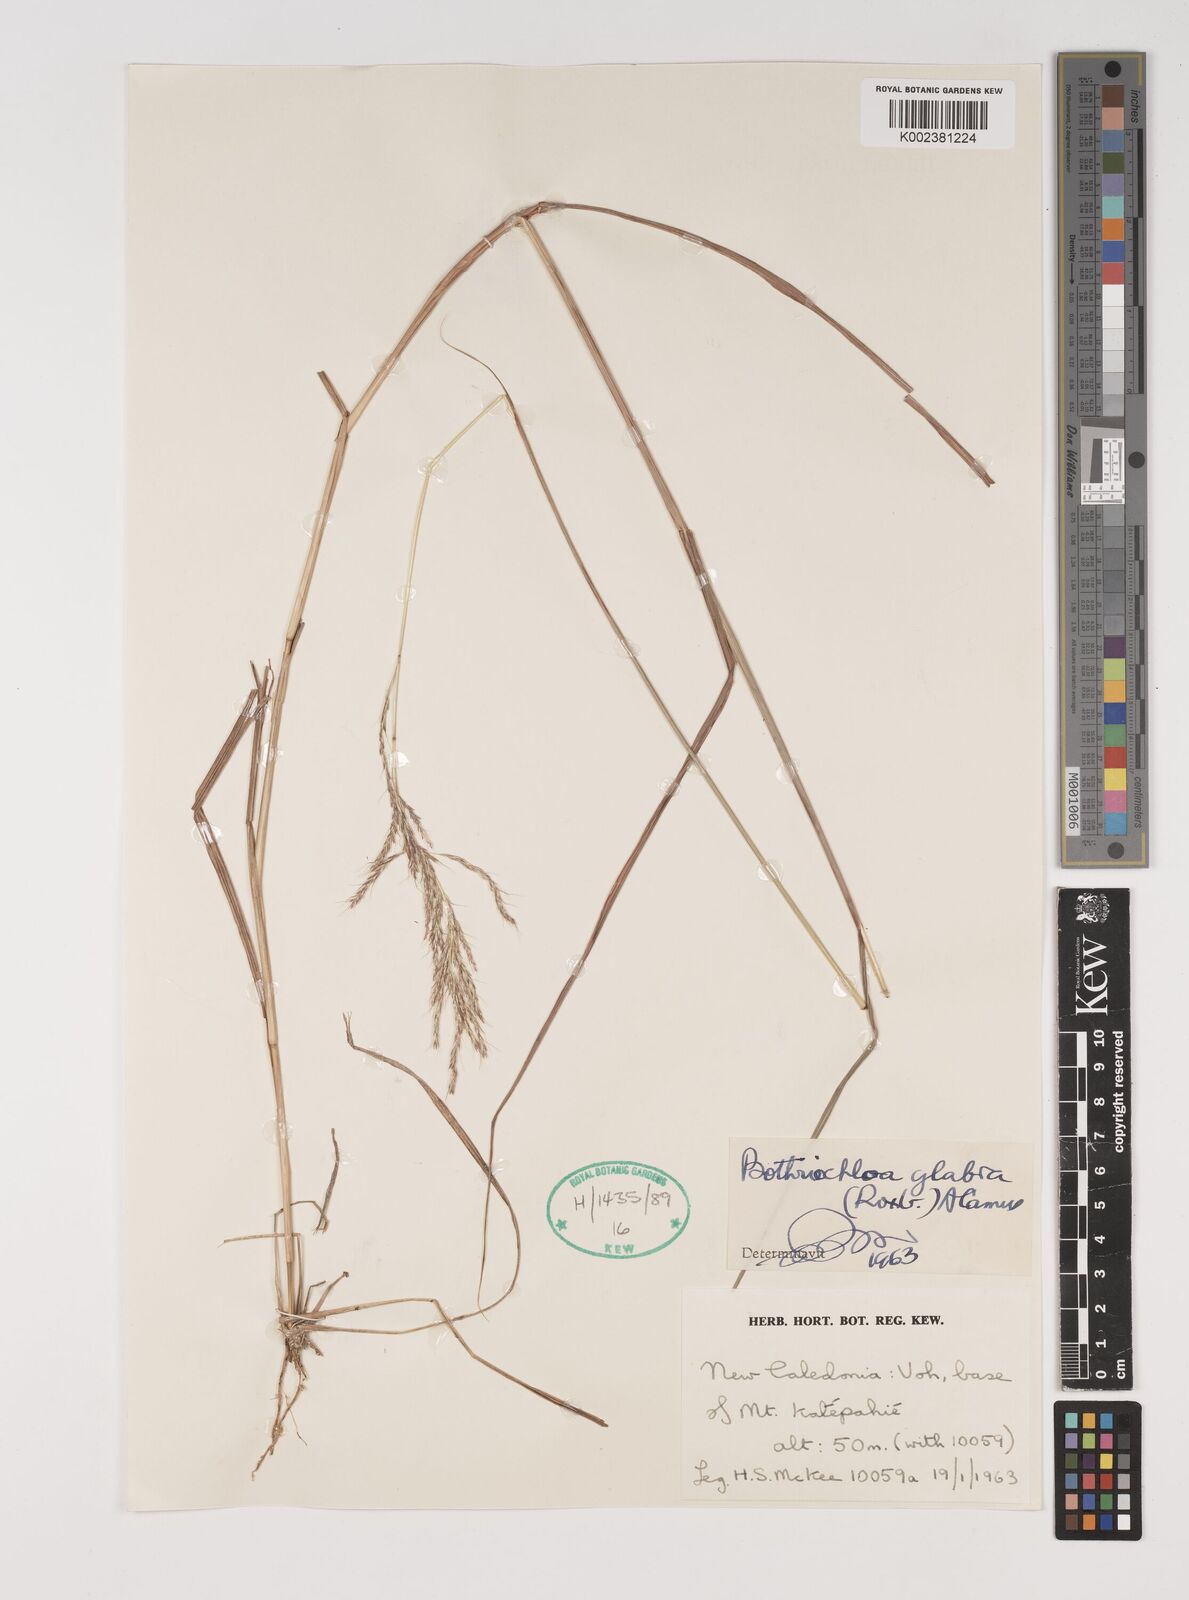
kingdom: Plantae
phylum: Tracheophyta
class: Liliopsida
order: Poales
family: Poaceae
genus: Bothriochloa
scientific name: Bothriochloa bladhii
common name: Caucasian bluestem
